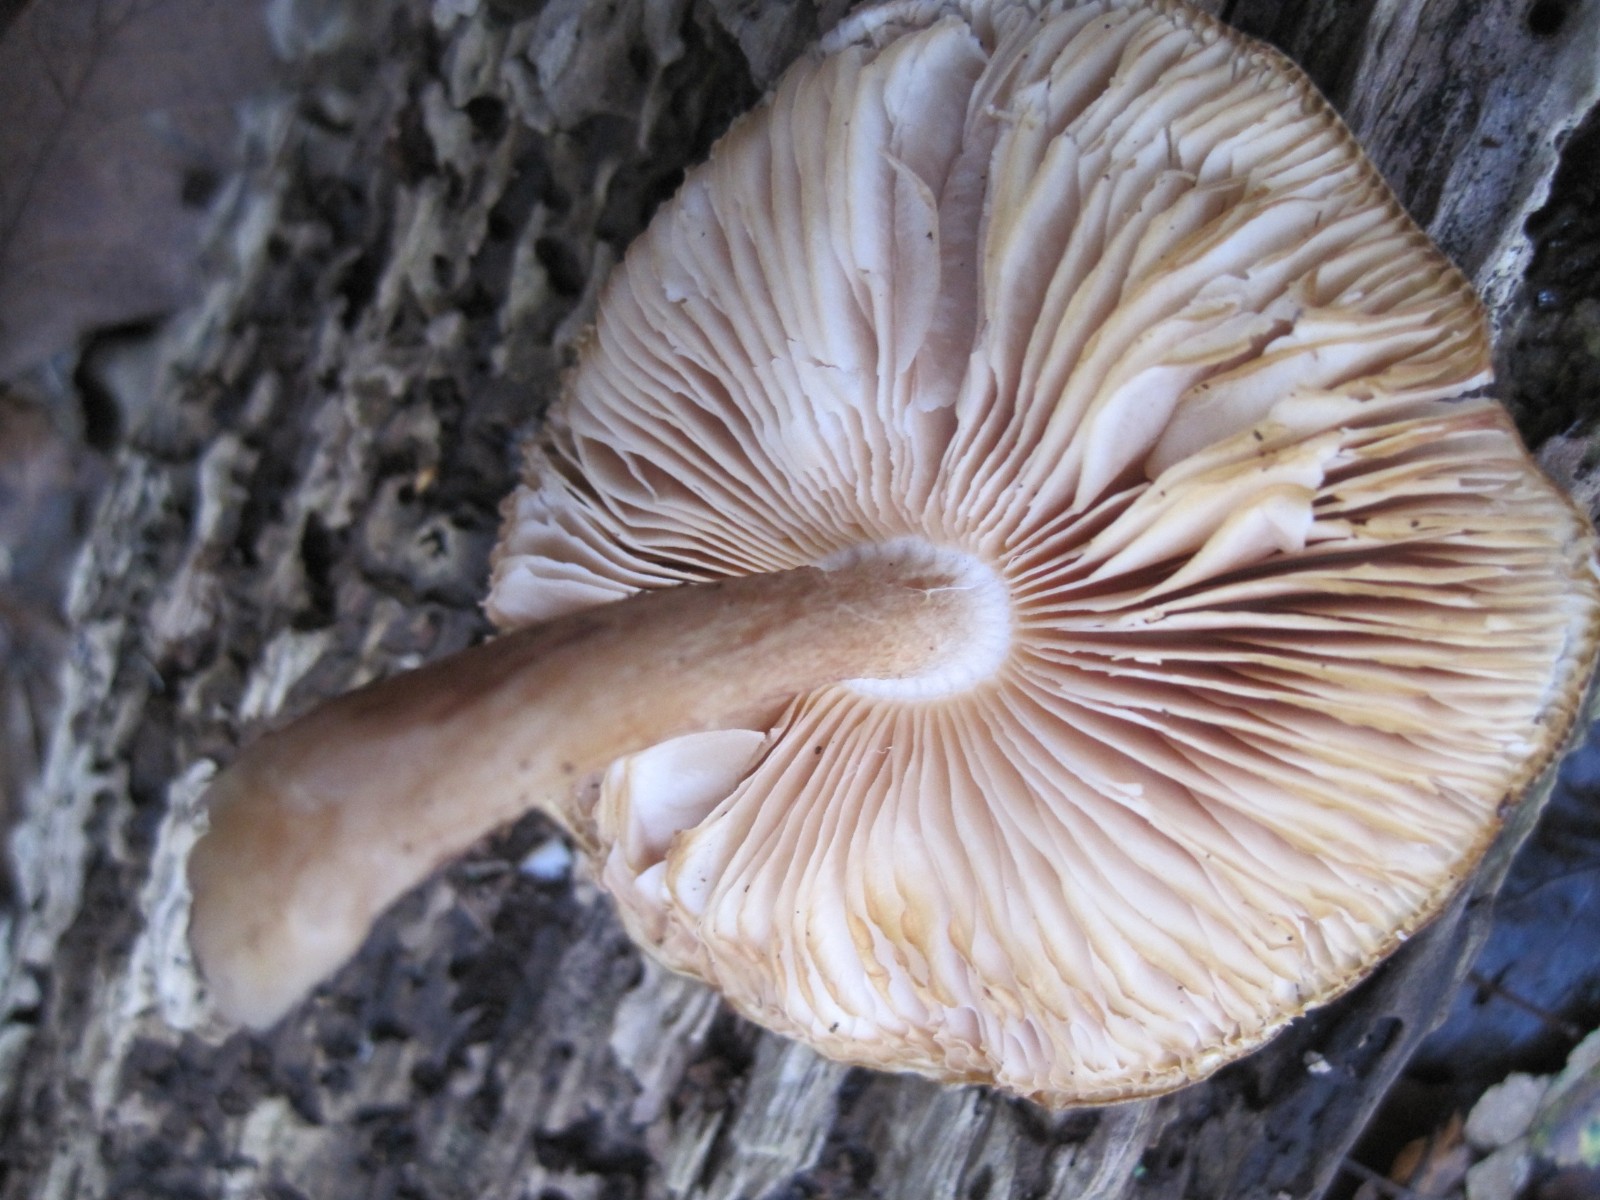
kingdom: Fungi
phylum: Basidiomycota
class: Agaricomycetes
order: Agaricales
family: Physalacriaceae
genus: Hymenopellis
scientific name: Hymenopellis radicata
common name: almindelig pælerodshat
